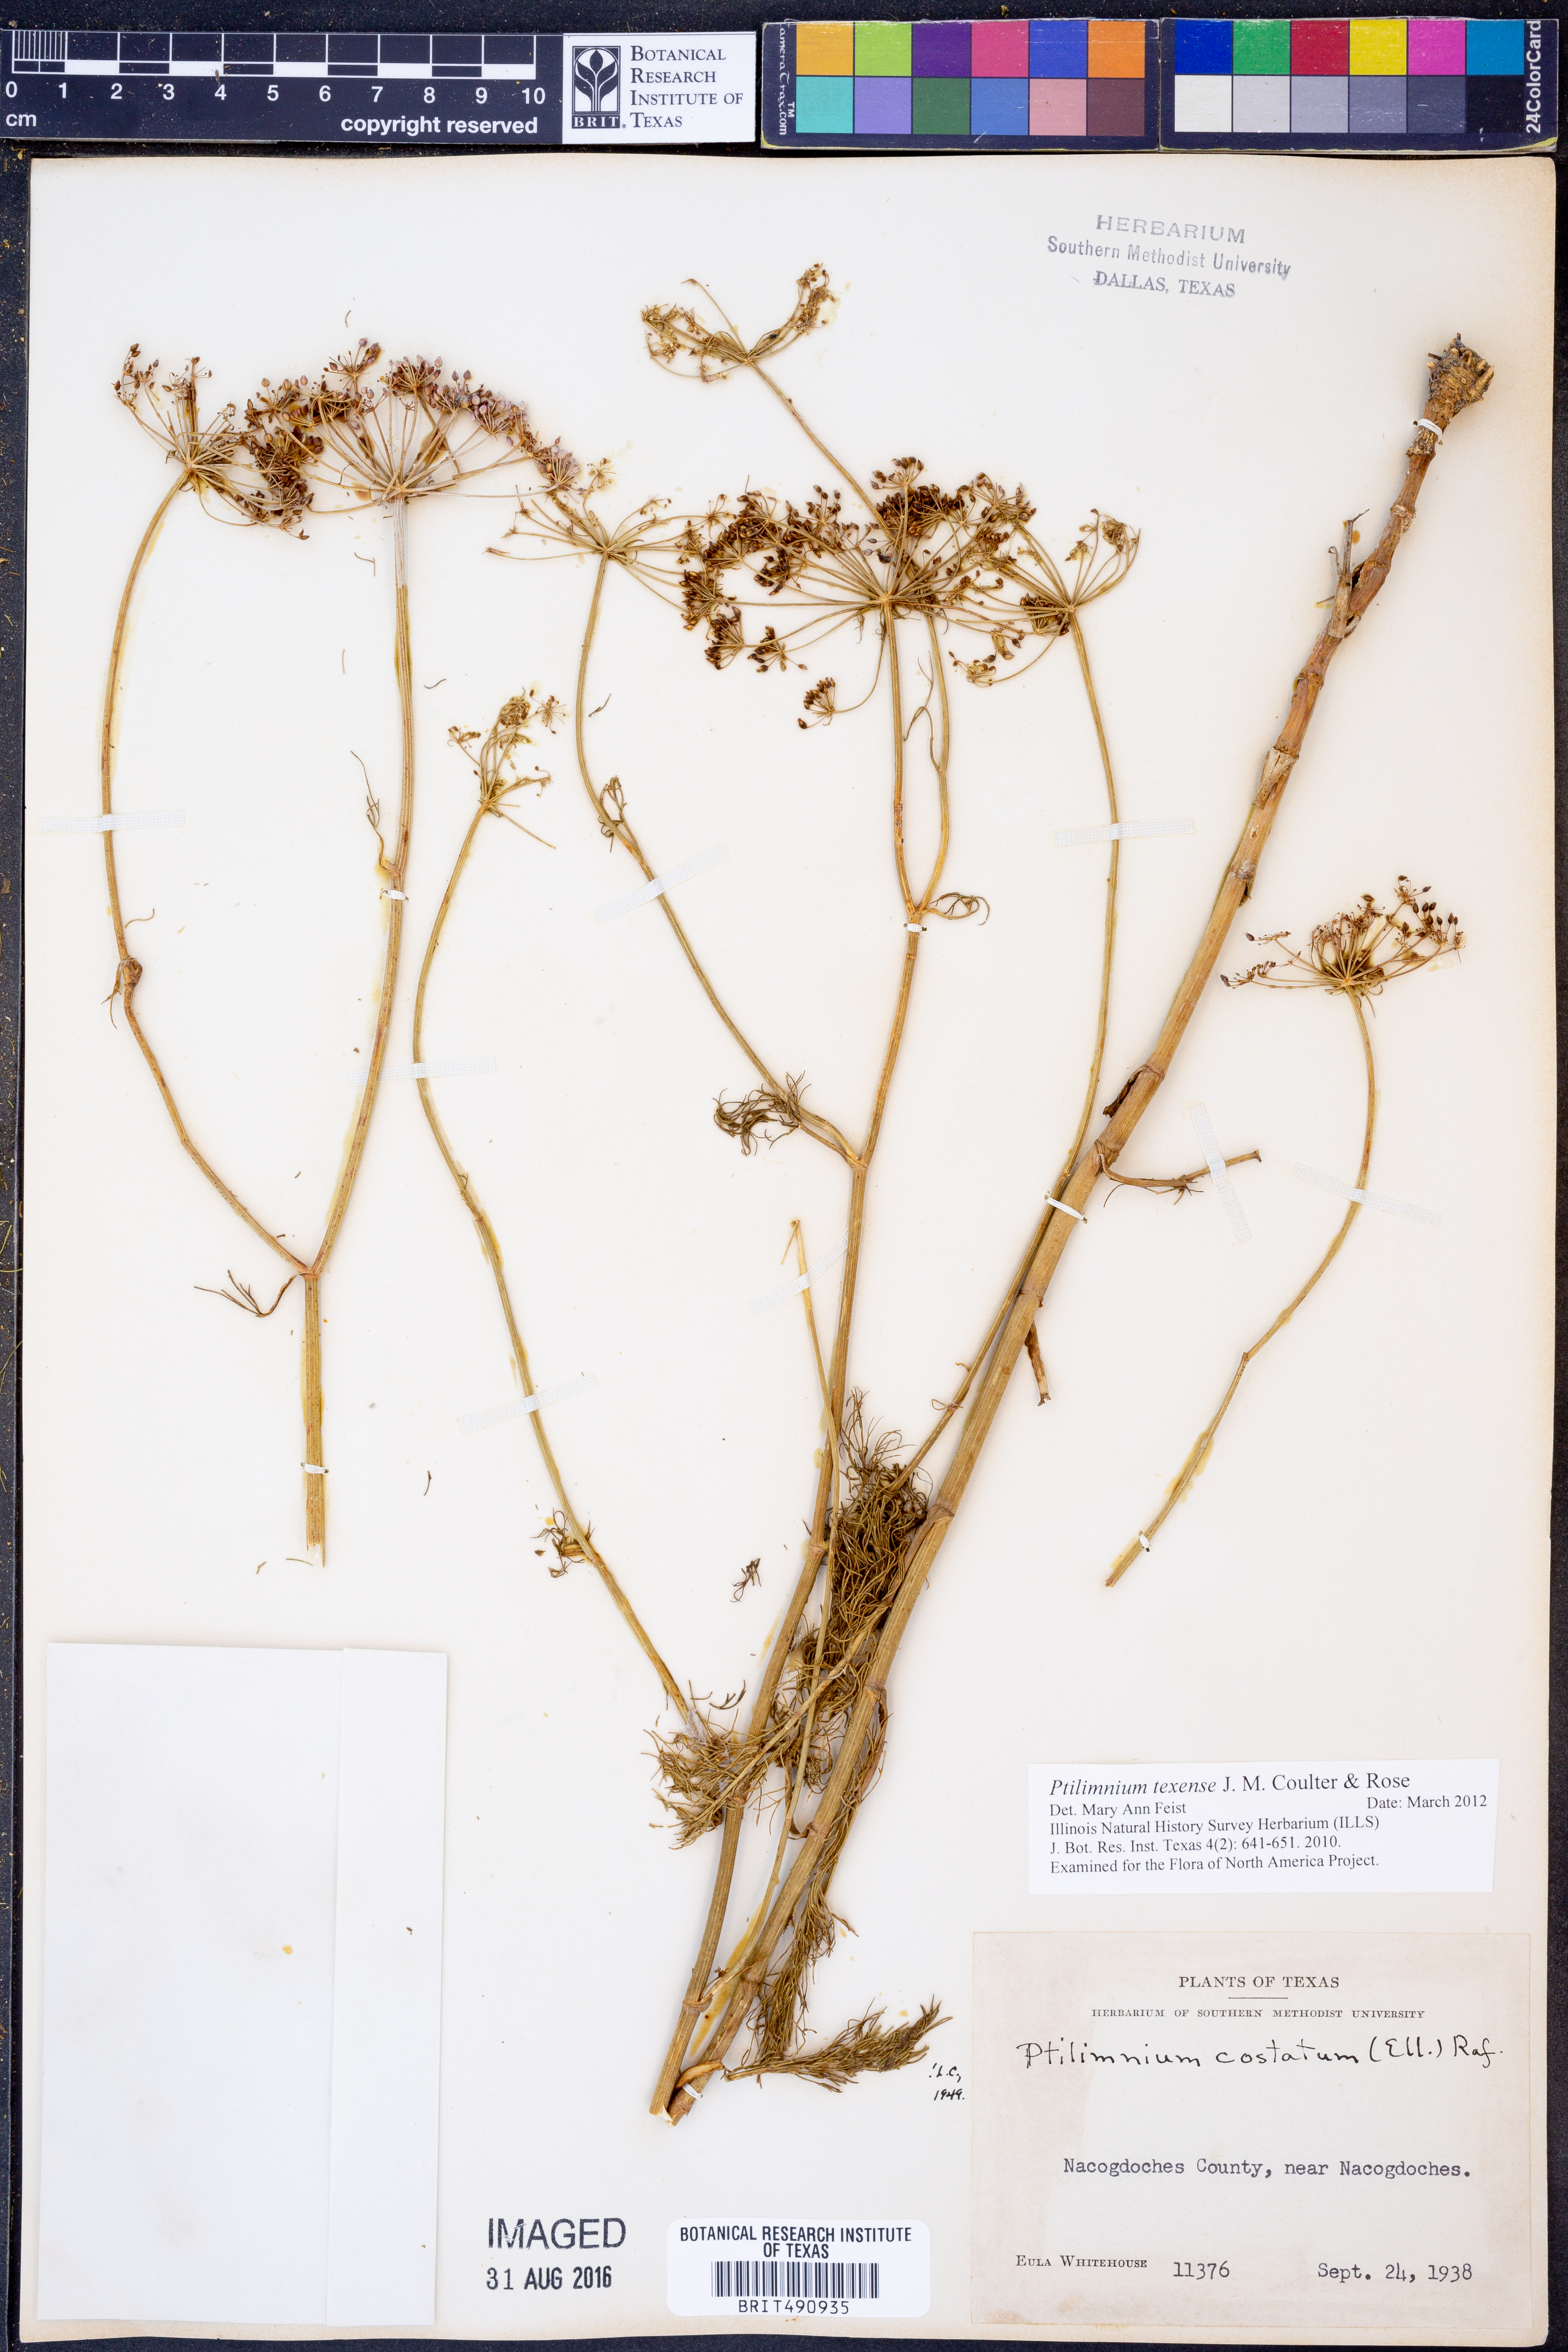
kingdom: Plantae
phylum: Tracheophyta
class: Magnoliopsida
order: Apiales
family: Apiaceae
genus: Ptilimnium
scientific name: Ptilimnium texense
